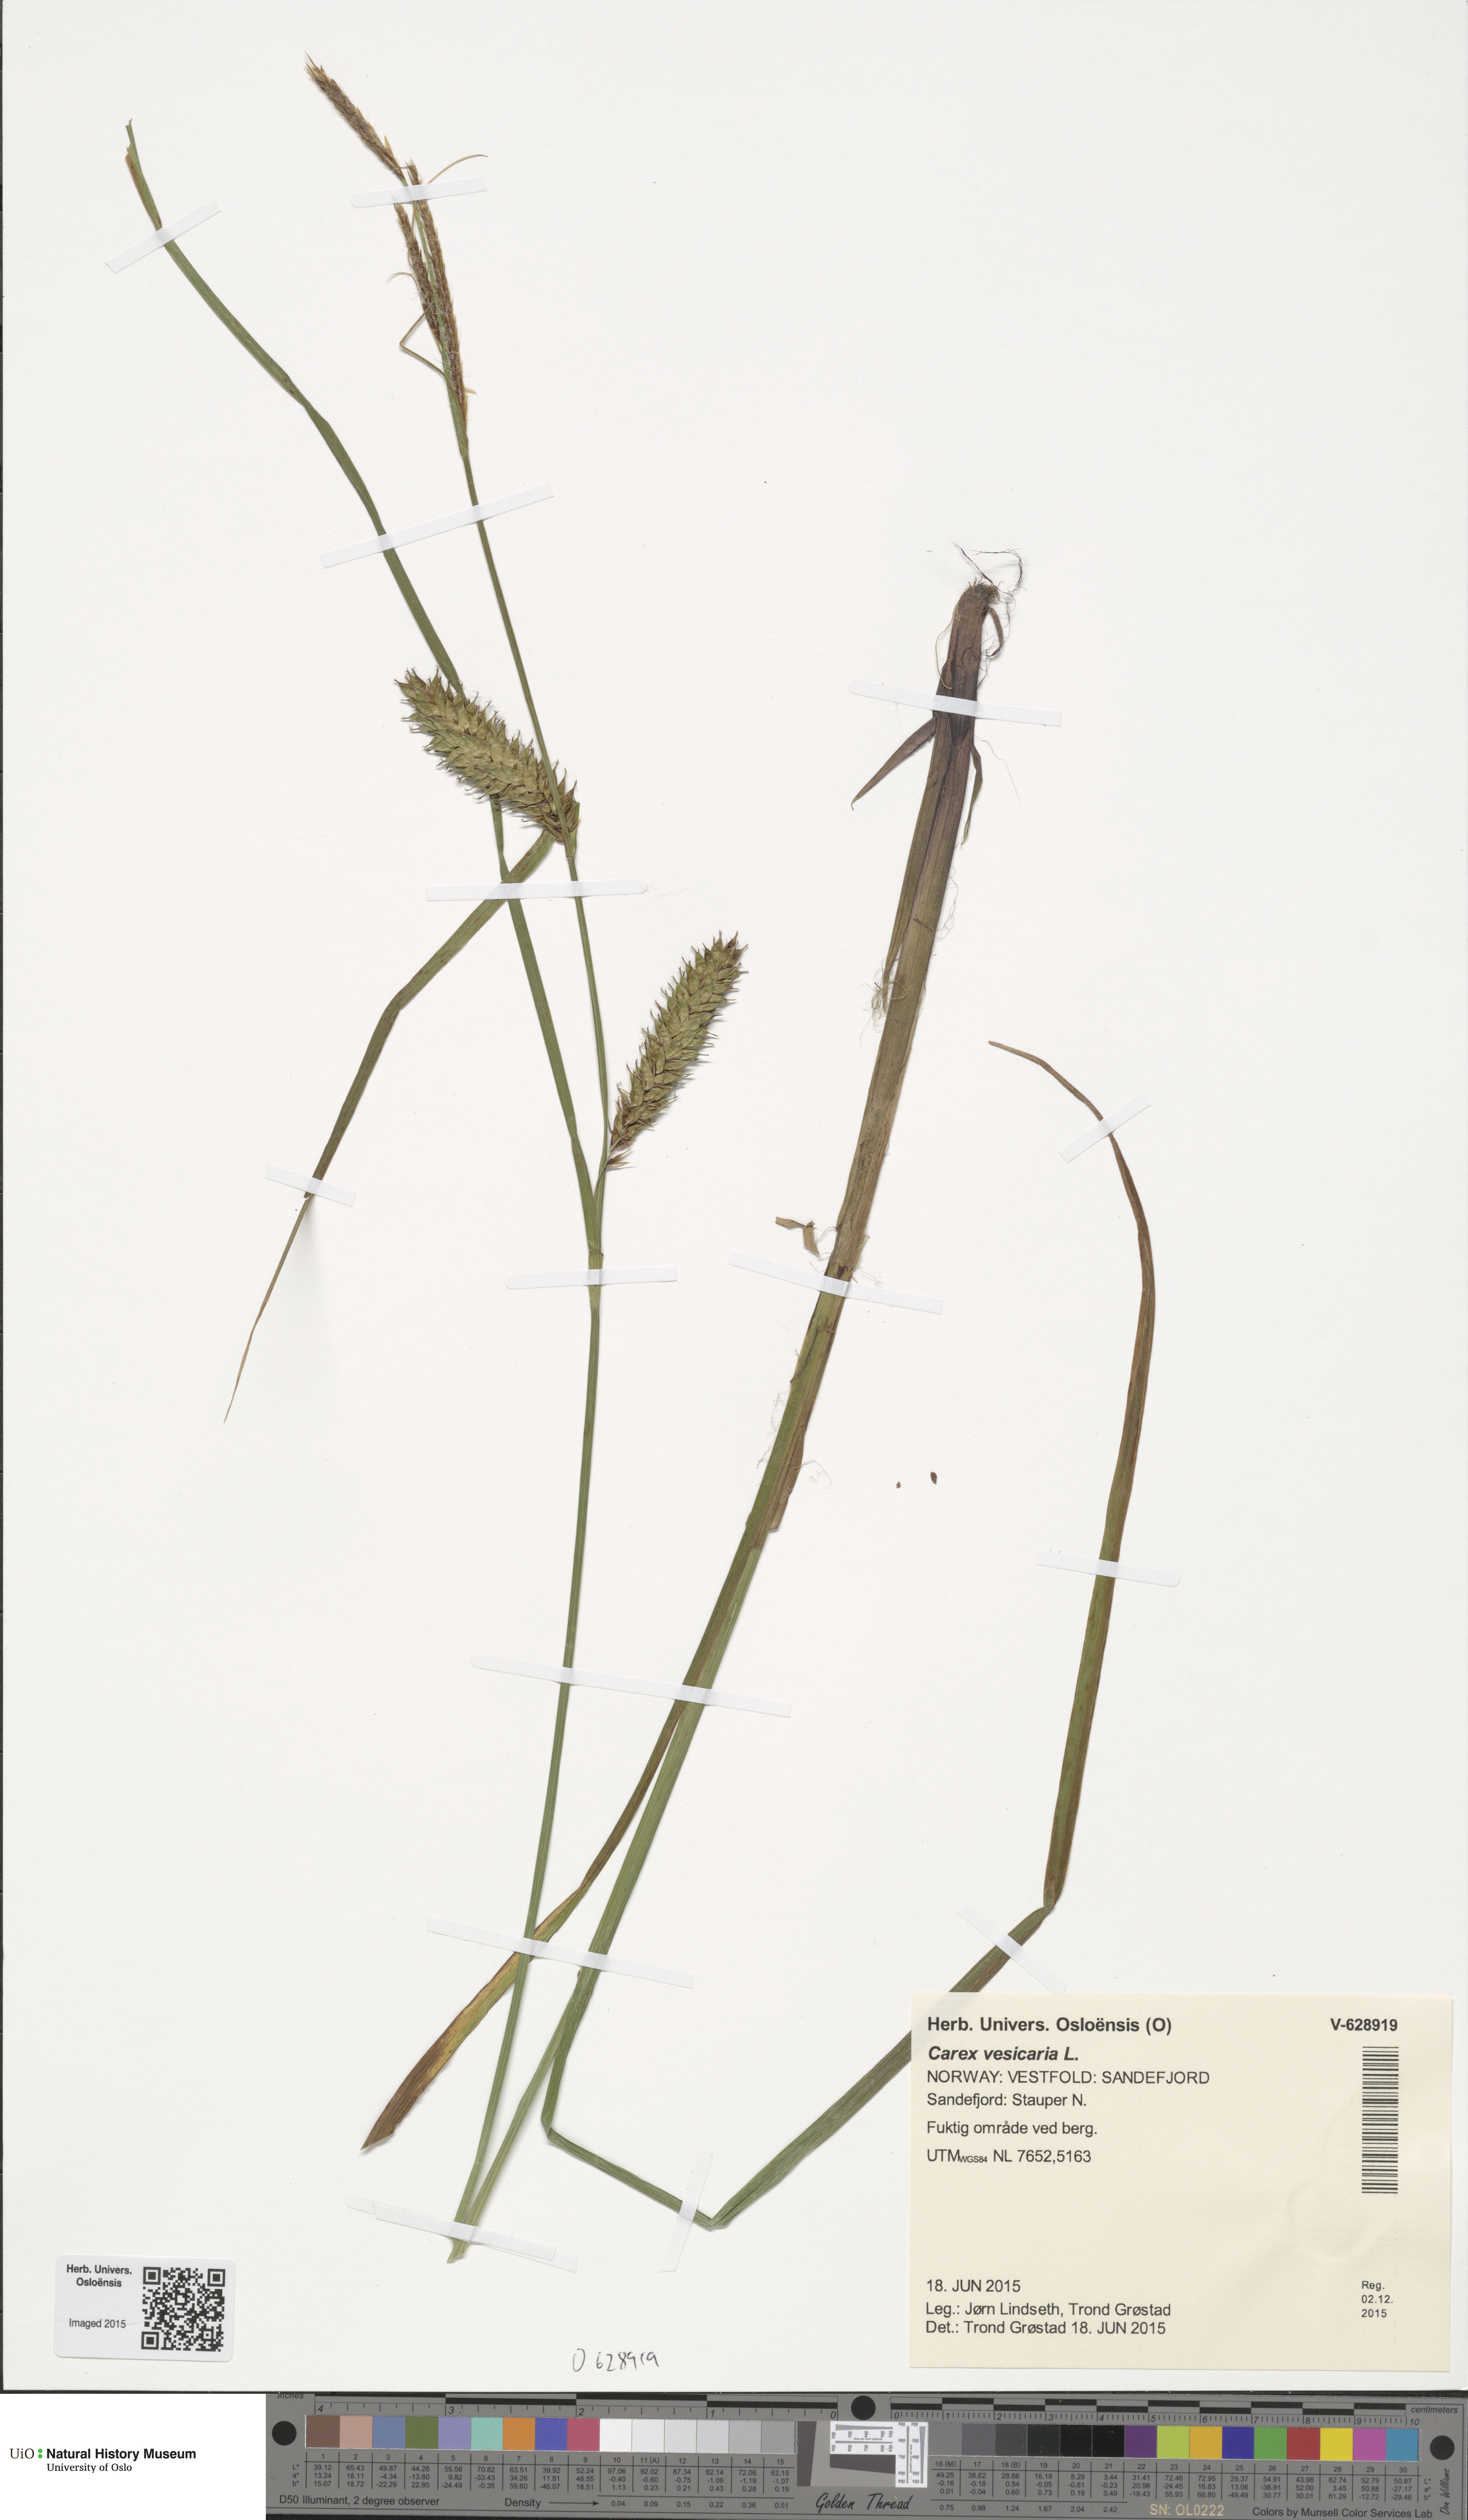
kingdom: Plantae
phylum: Tracheophyta
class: Liliopsida
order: Poales
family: Cyperaceae
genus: Carex
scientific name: Carex vesicaria
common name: Bladder-sedge
